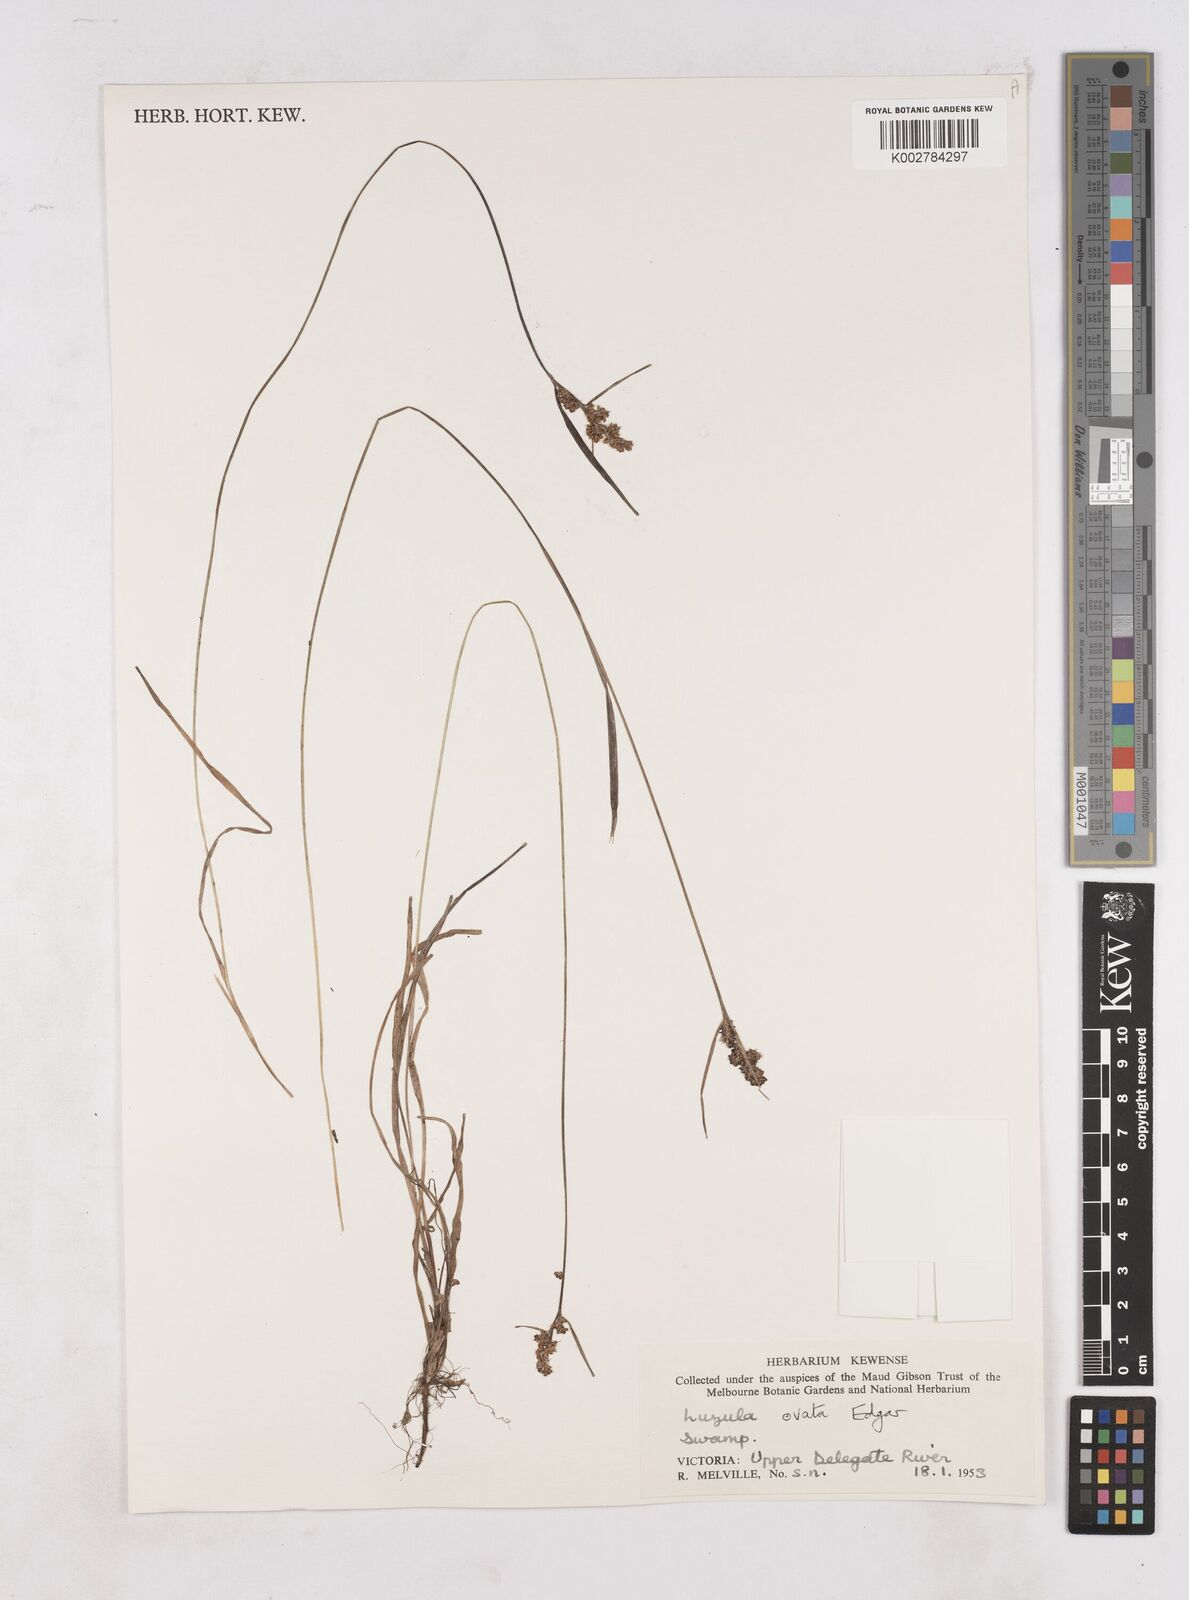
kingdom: Plantae
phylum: Tracheophyta
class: Liliopsida
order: Poales
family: Juncaceae
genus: Luzula
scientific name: Luzula ovata
